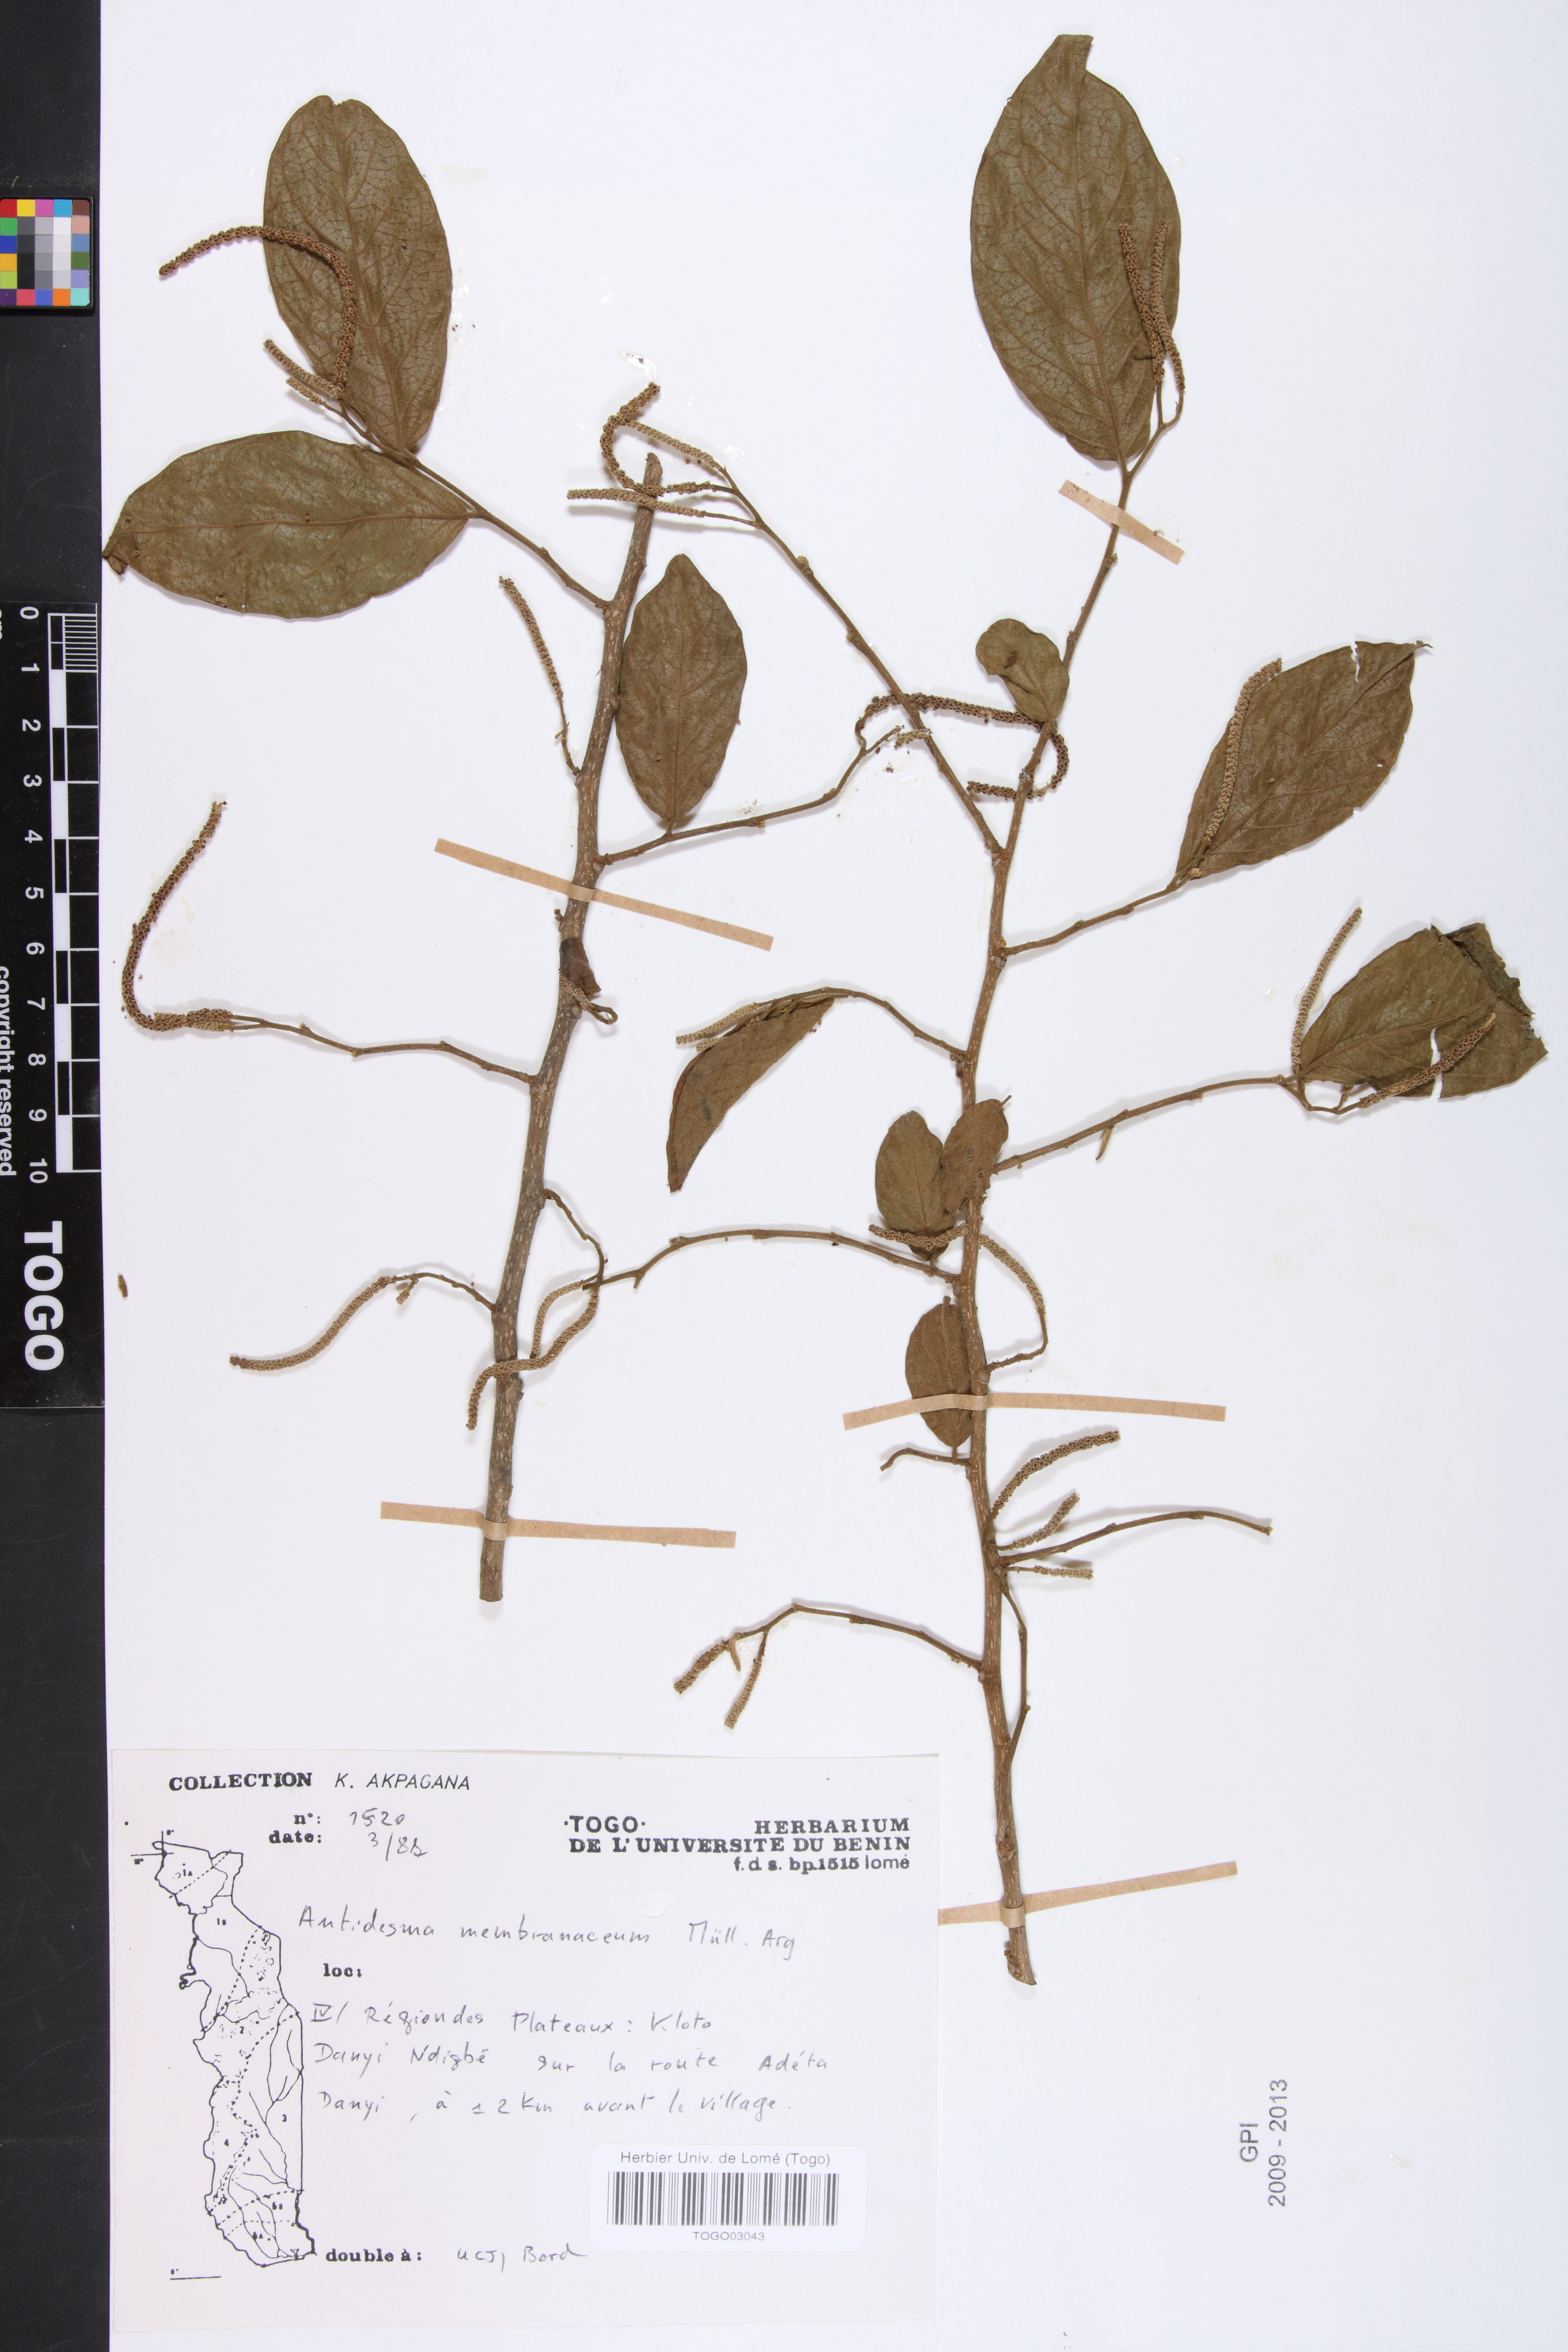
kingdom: Plantae
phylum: Tracheophyta
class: Magnoliopsida
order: Malpighiales
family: Phyllanthaceae
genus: Antidesma
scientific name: Antidesma membranaceum
